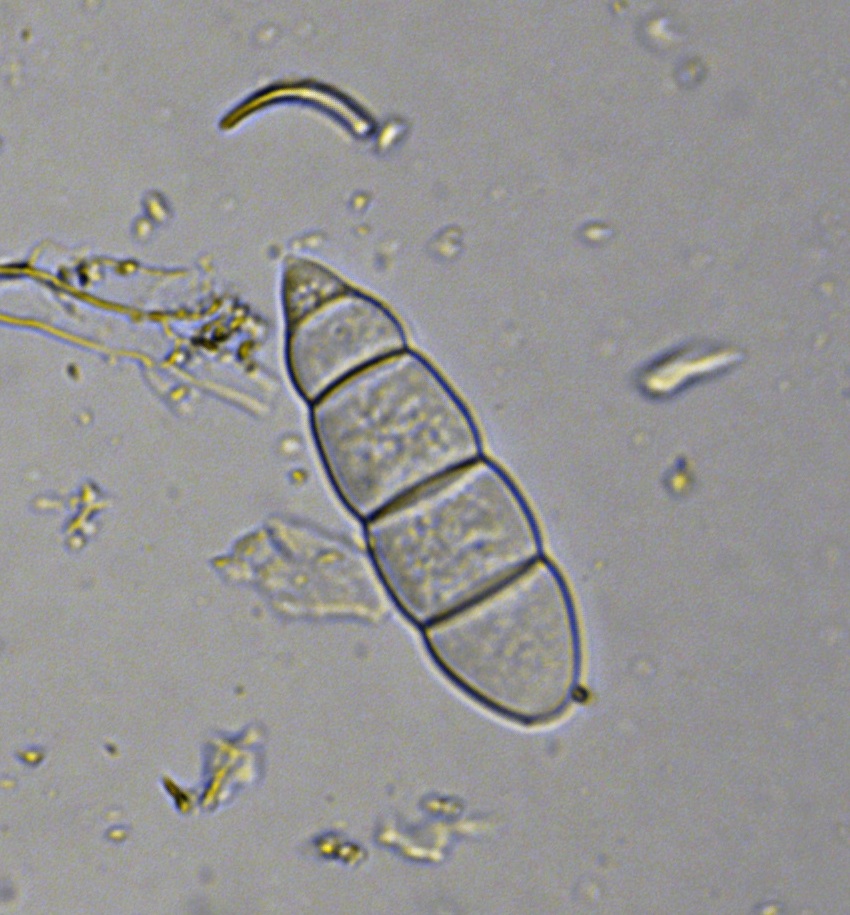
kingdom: Fungi
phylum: Ascomycota
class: Leotiomycetes
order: Helotiales
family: Ploettnerulaceae
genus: Mastigosporium
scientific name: Mastigosporium album
